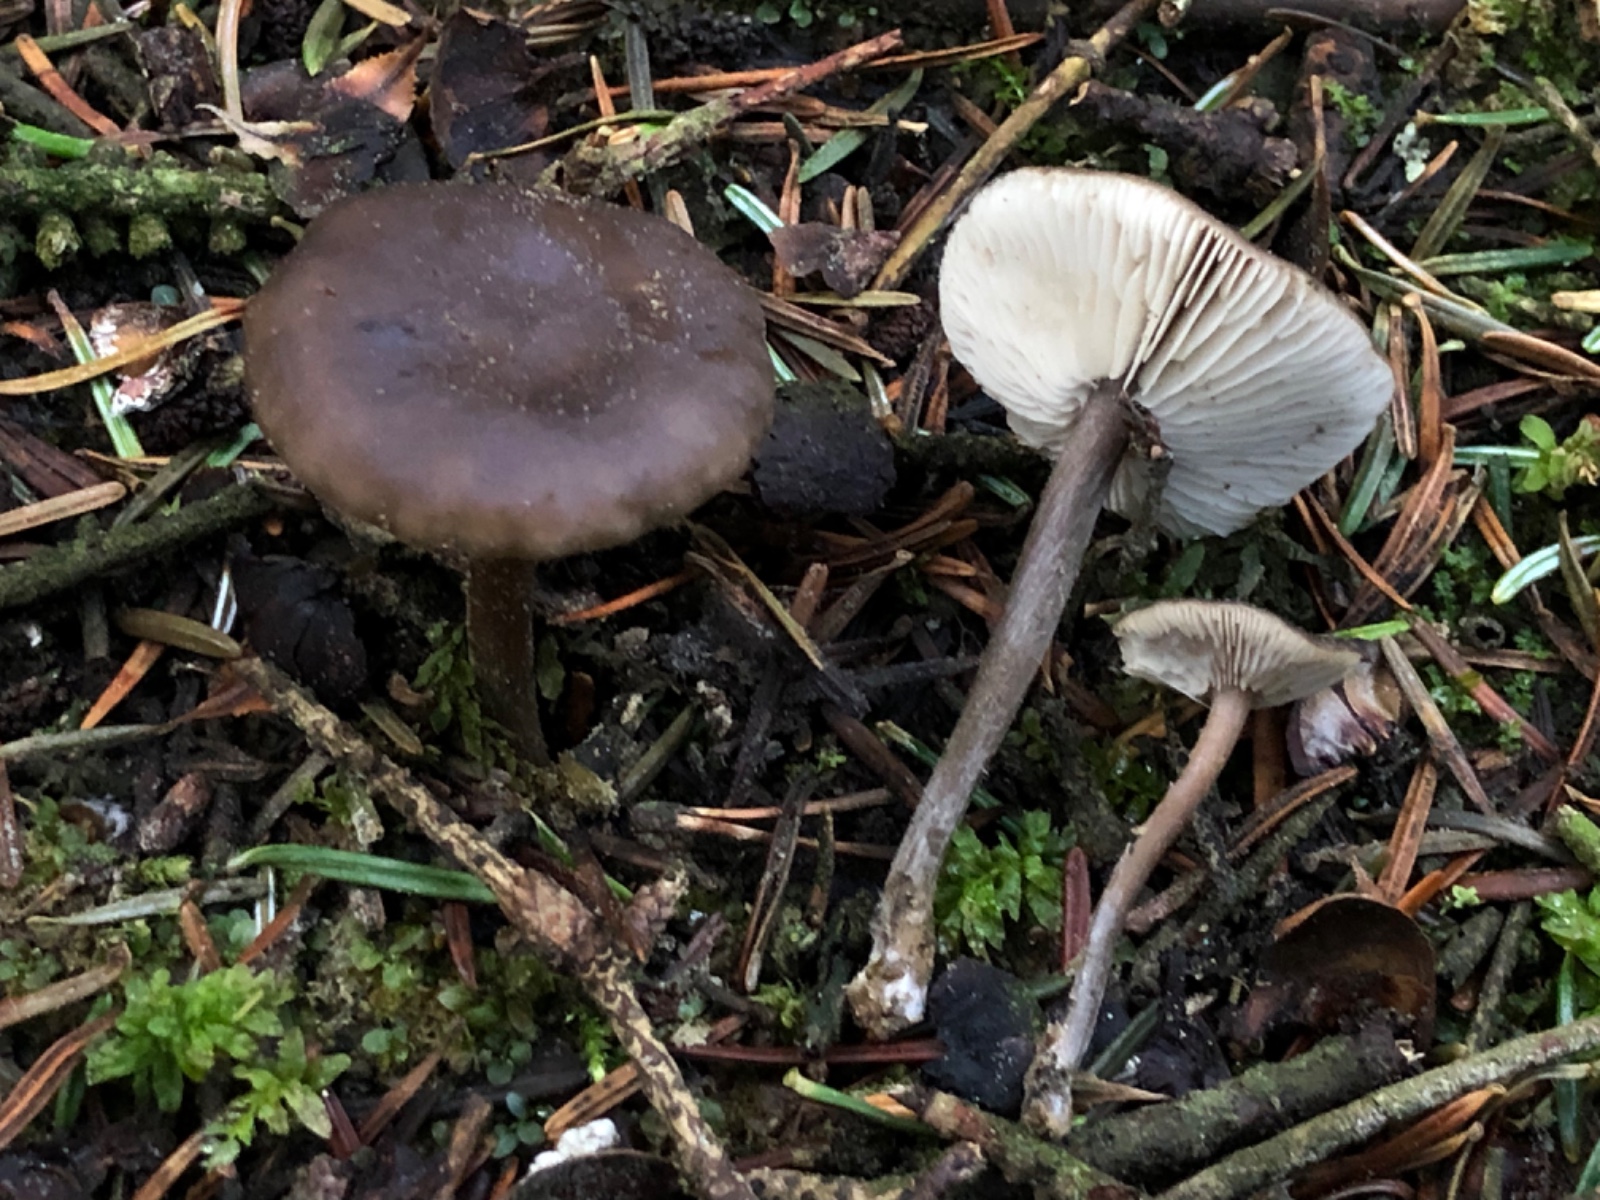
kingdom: Fungi
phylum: Basidiomycota
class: Agaricomycetes
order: Agaricales
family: Tricholomataceae
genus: Melanoleuca
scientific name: Melanoleuca
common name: munkehat
